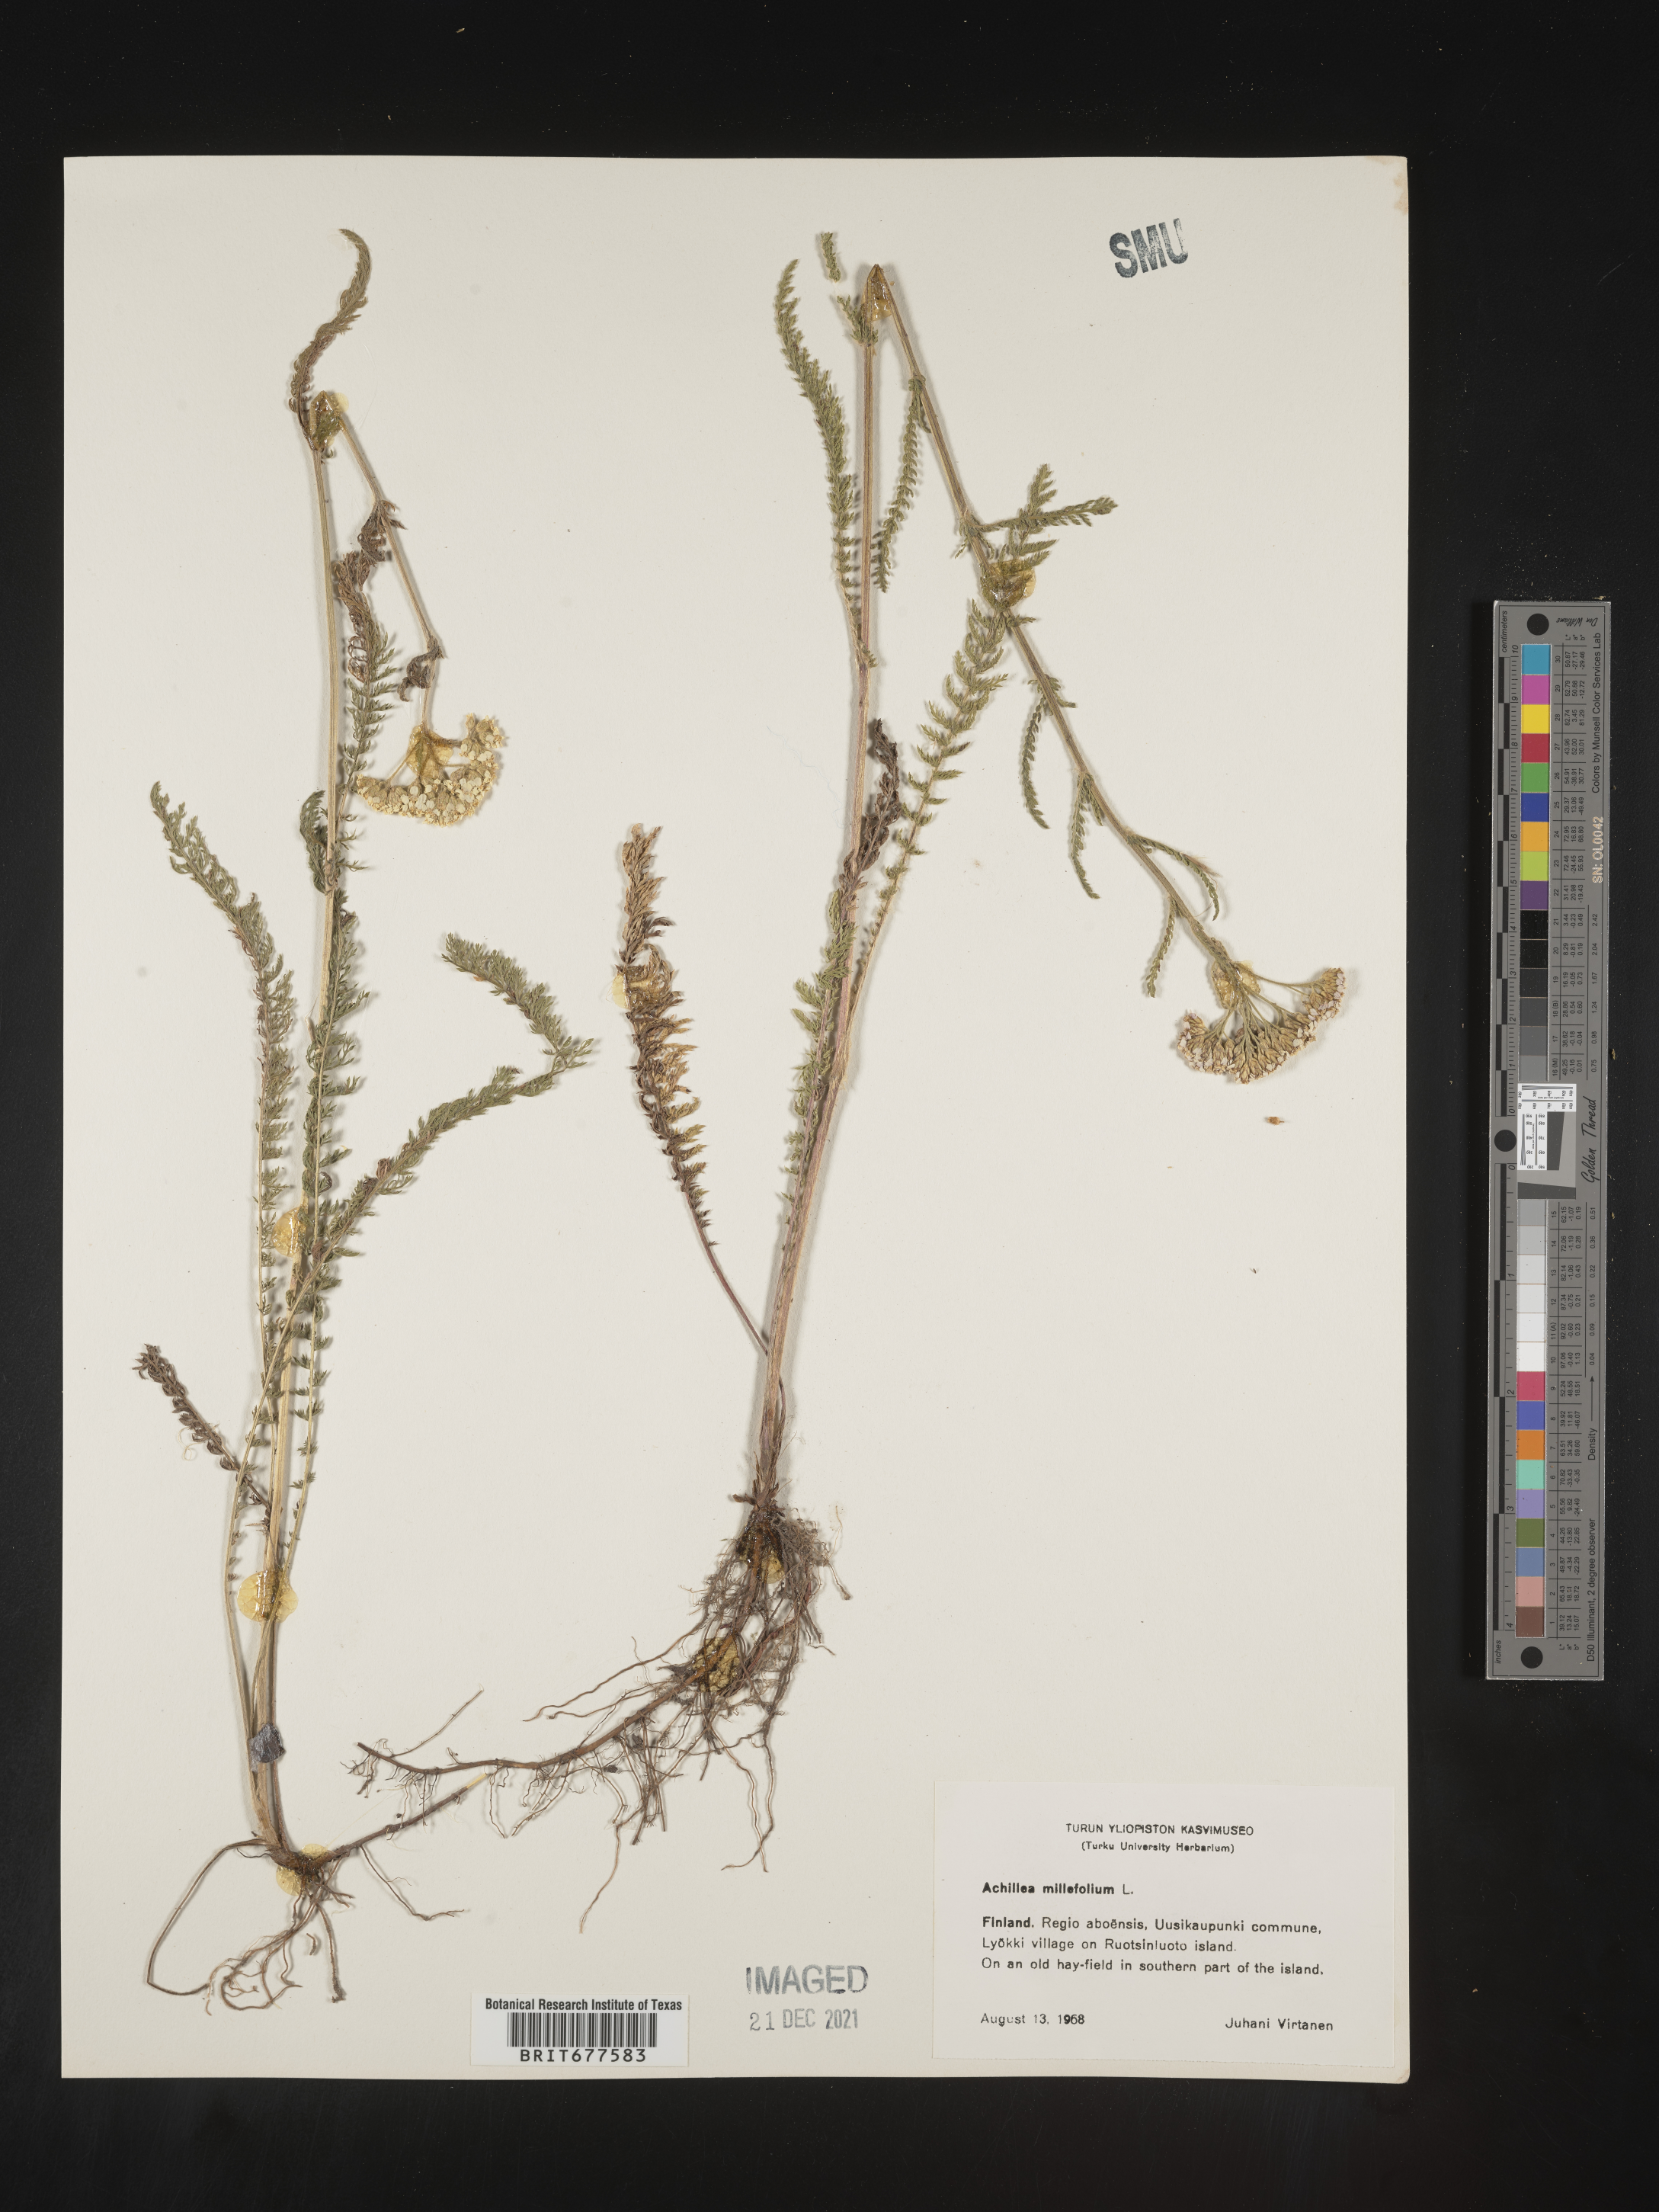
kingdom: Plantae
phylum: Tracheophyta
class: Magnoliopsida
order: Asterales
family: Asteraceae
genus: Achillea
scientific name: Achillea millefolium
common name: Yarrow
